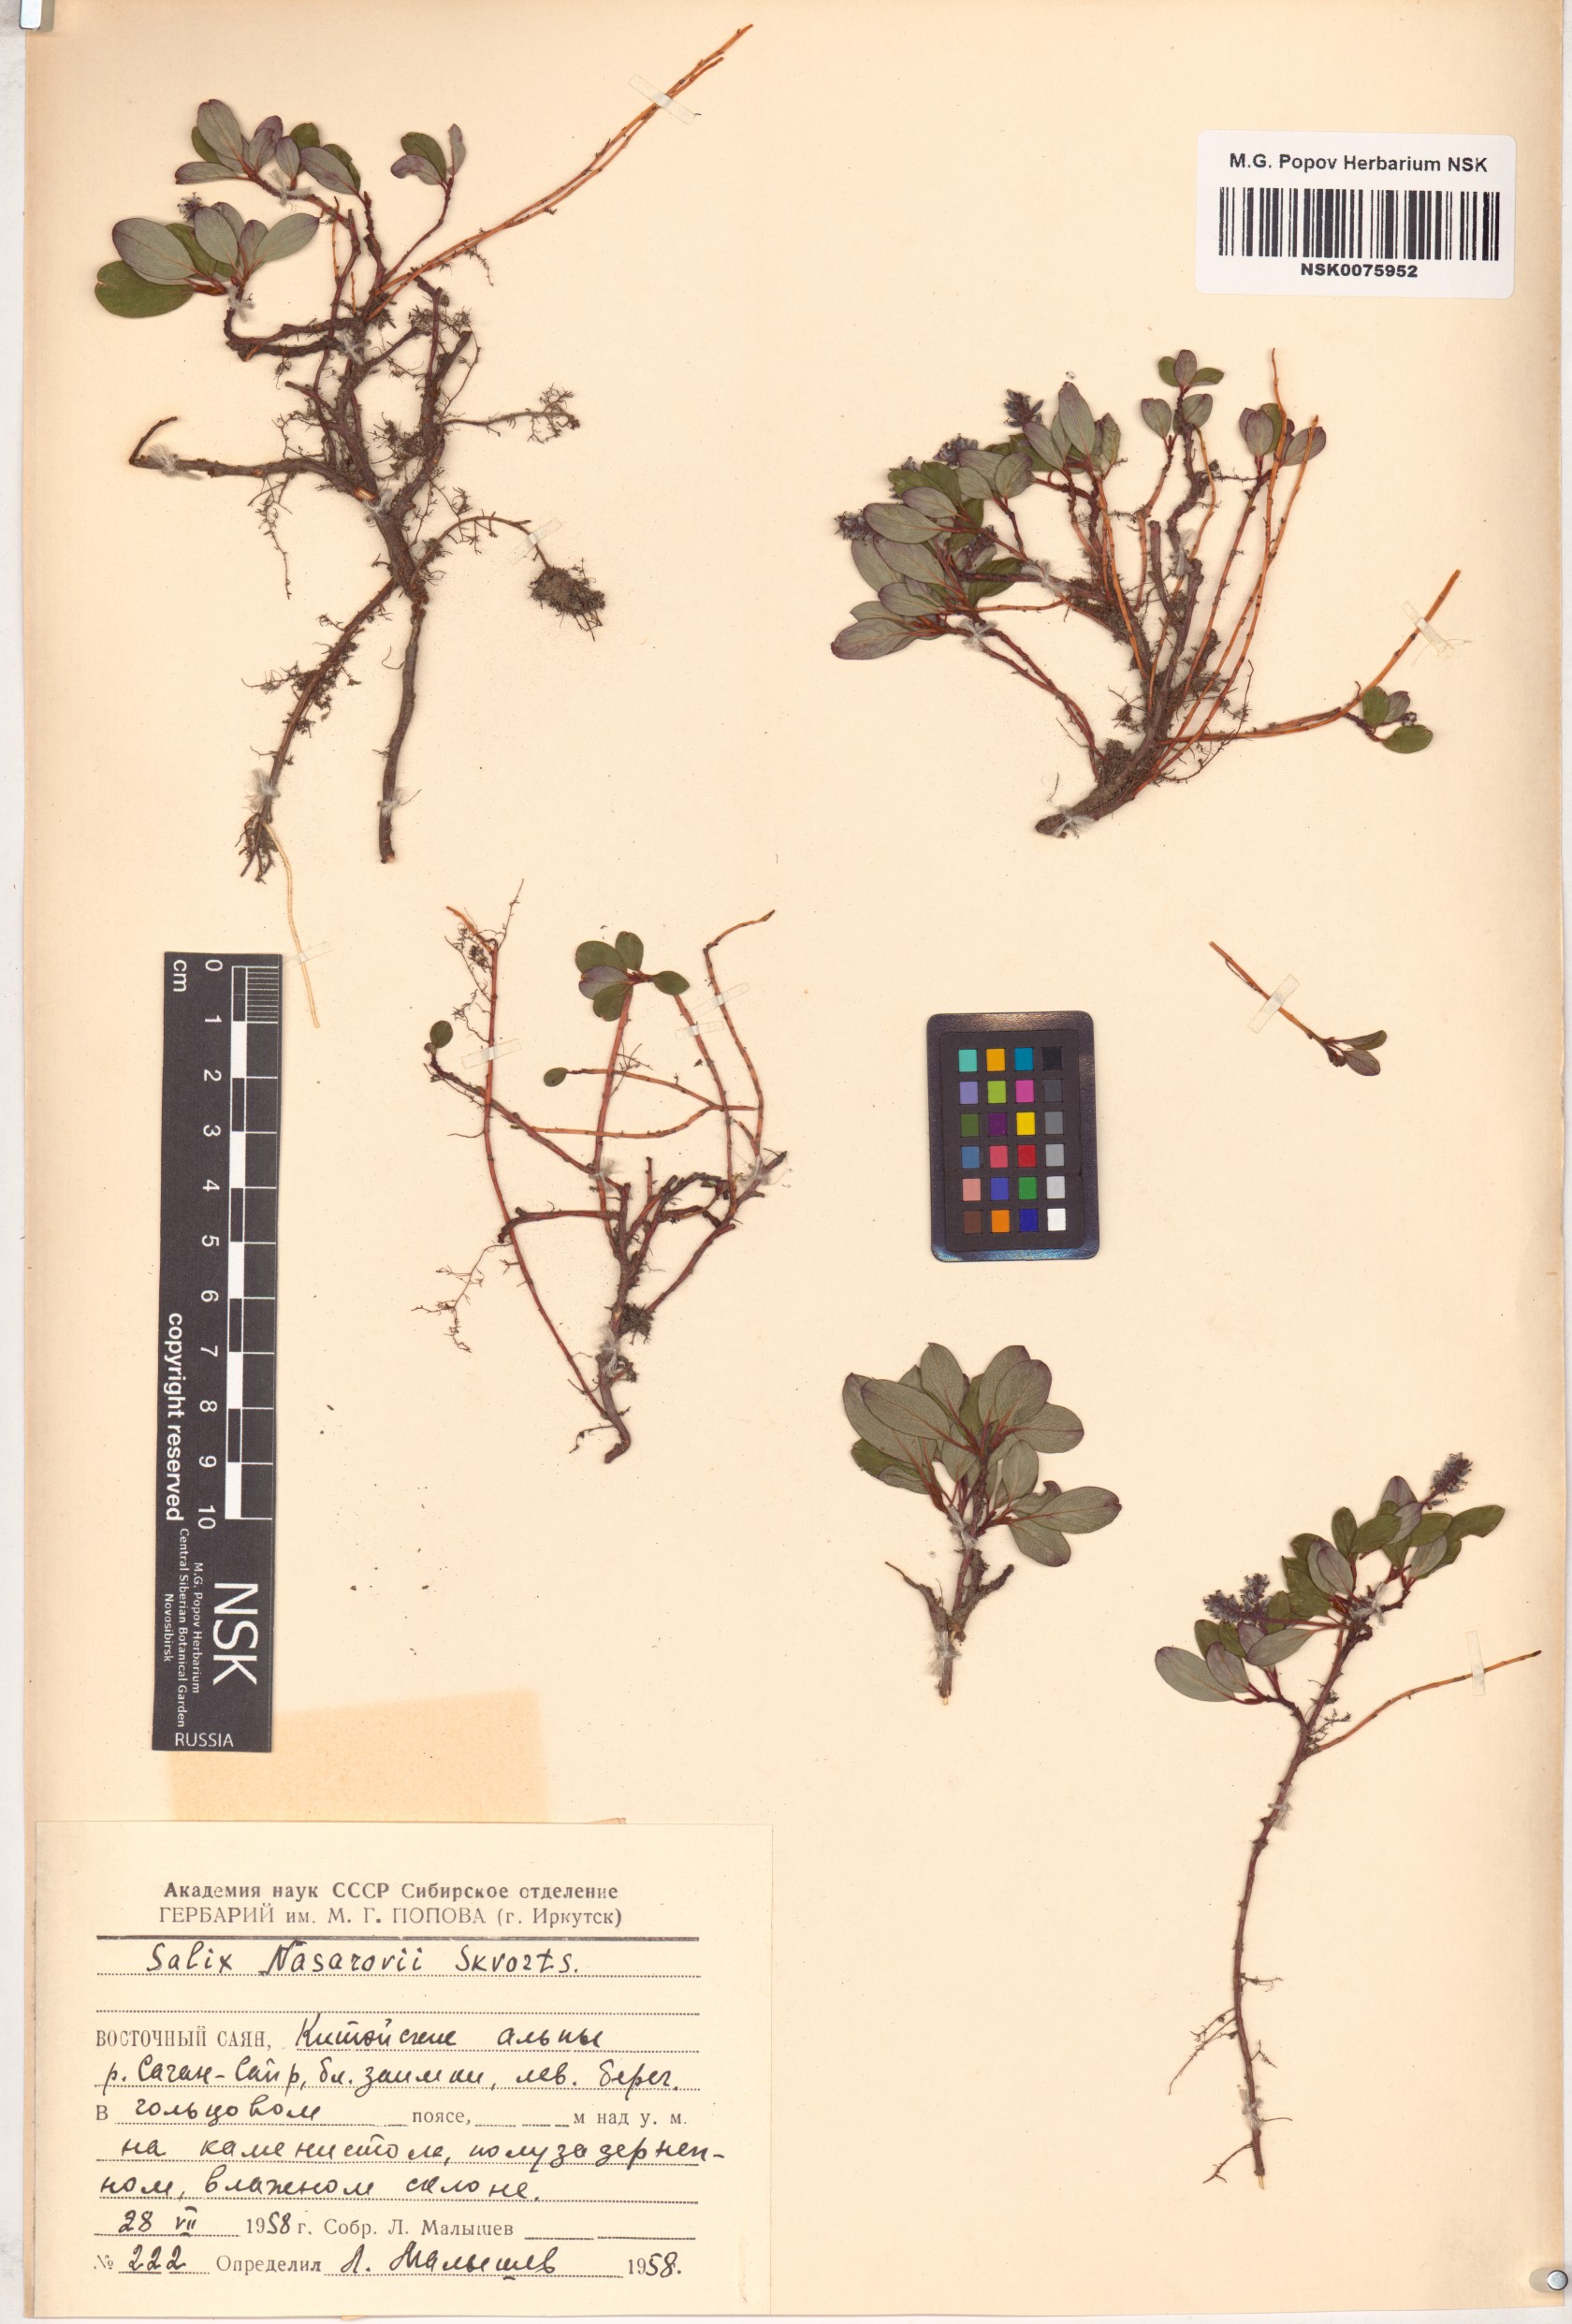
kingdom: Plantae
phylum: Tracheophyta
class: Magnoliopsida
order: Malpighiales
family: Salicaceae
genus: Salix
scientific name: Salix nasarovii
